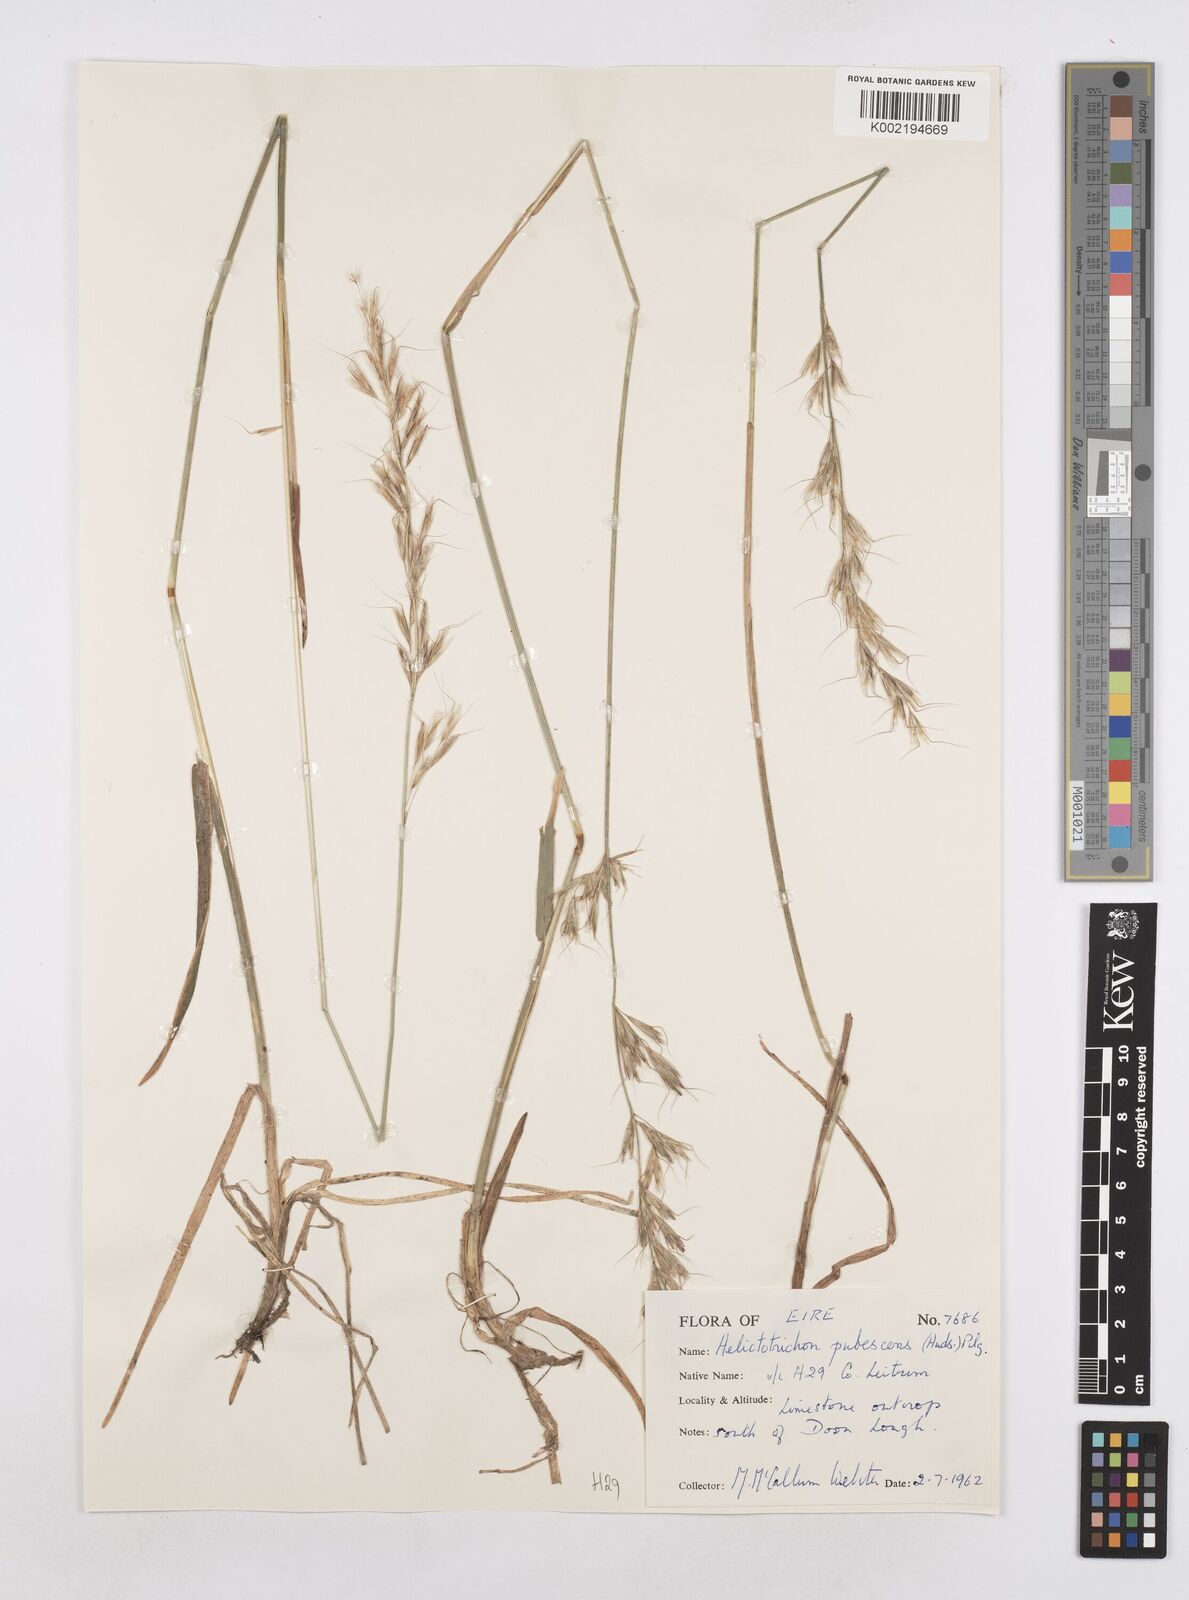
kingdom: Plantae
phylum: Tracheophyta
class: Liliopsida
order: Poales
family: Poaceae
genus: Avenula
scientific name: Avenula pubescens
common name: Downy alpine oatgrass
